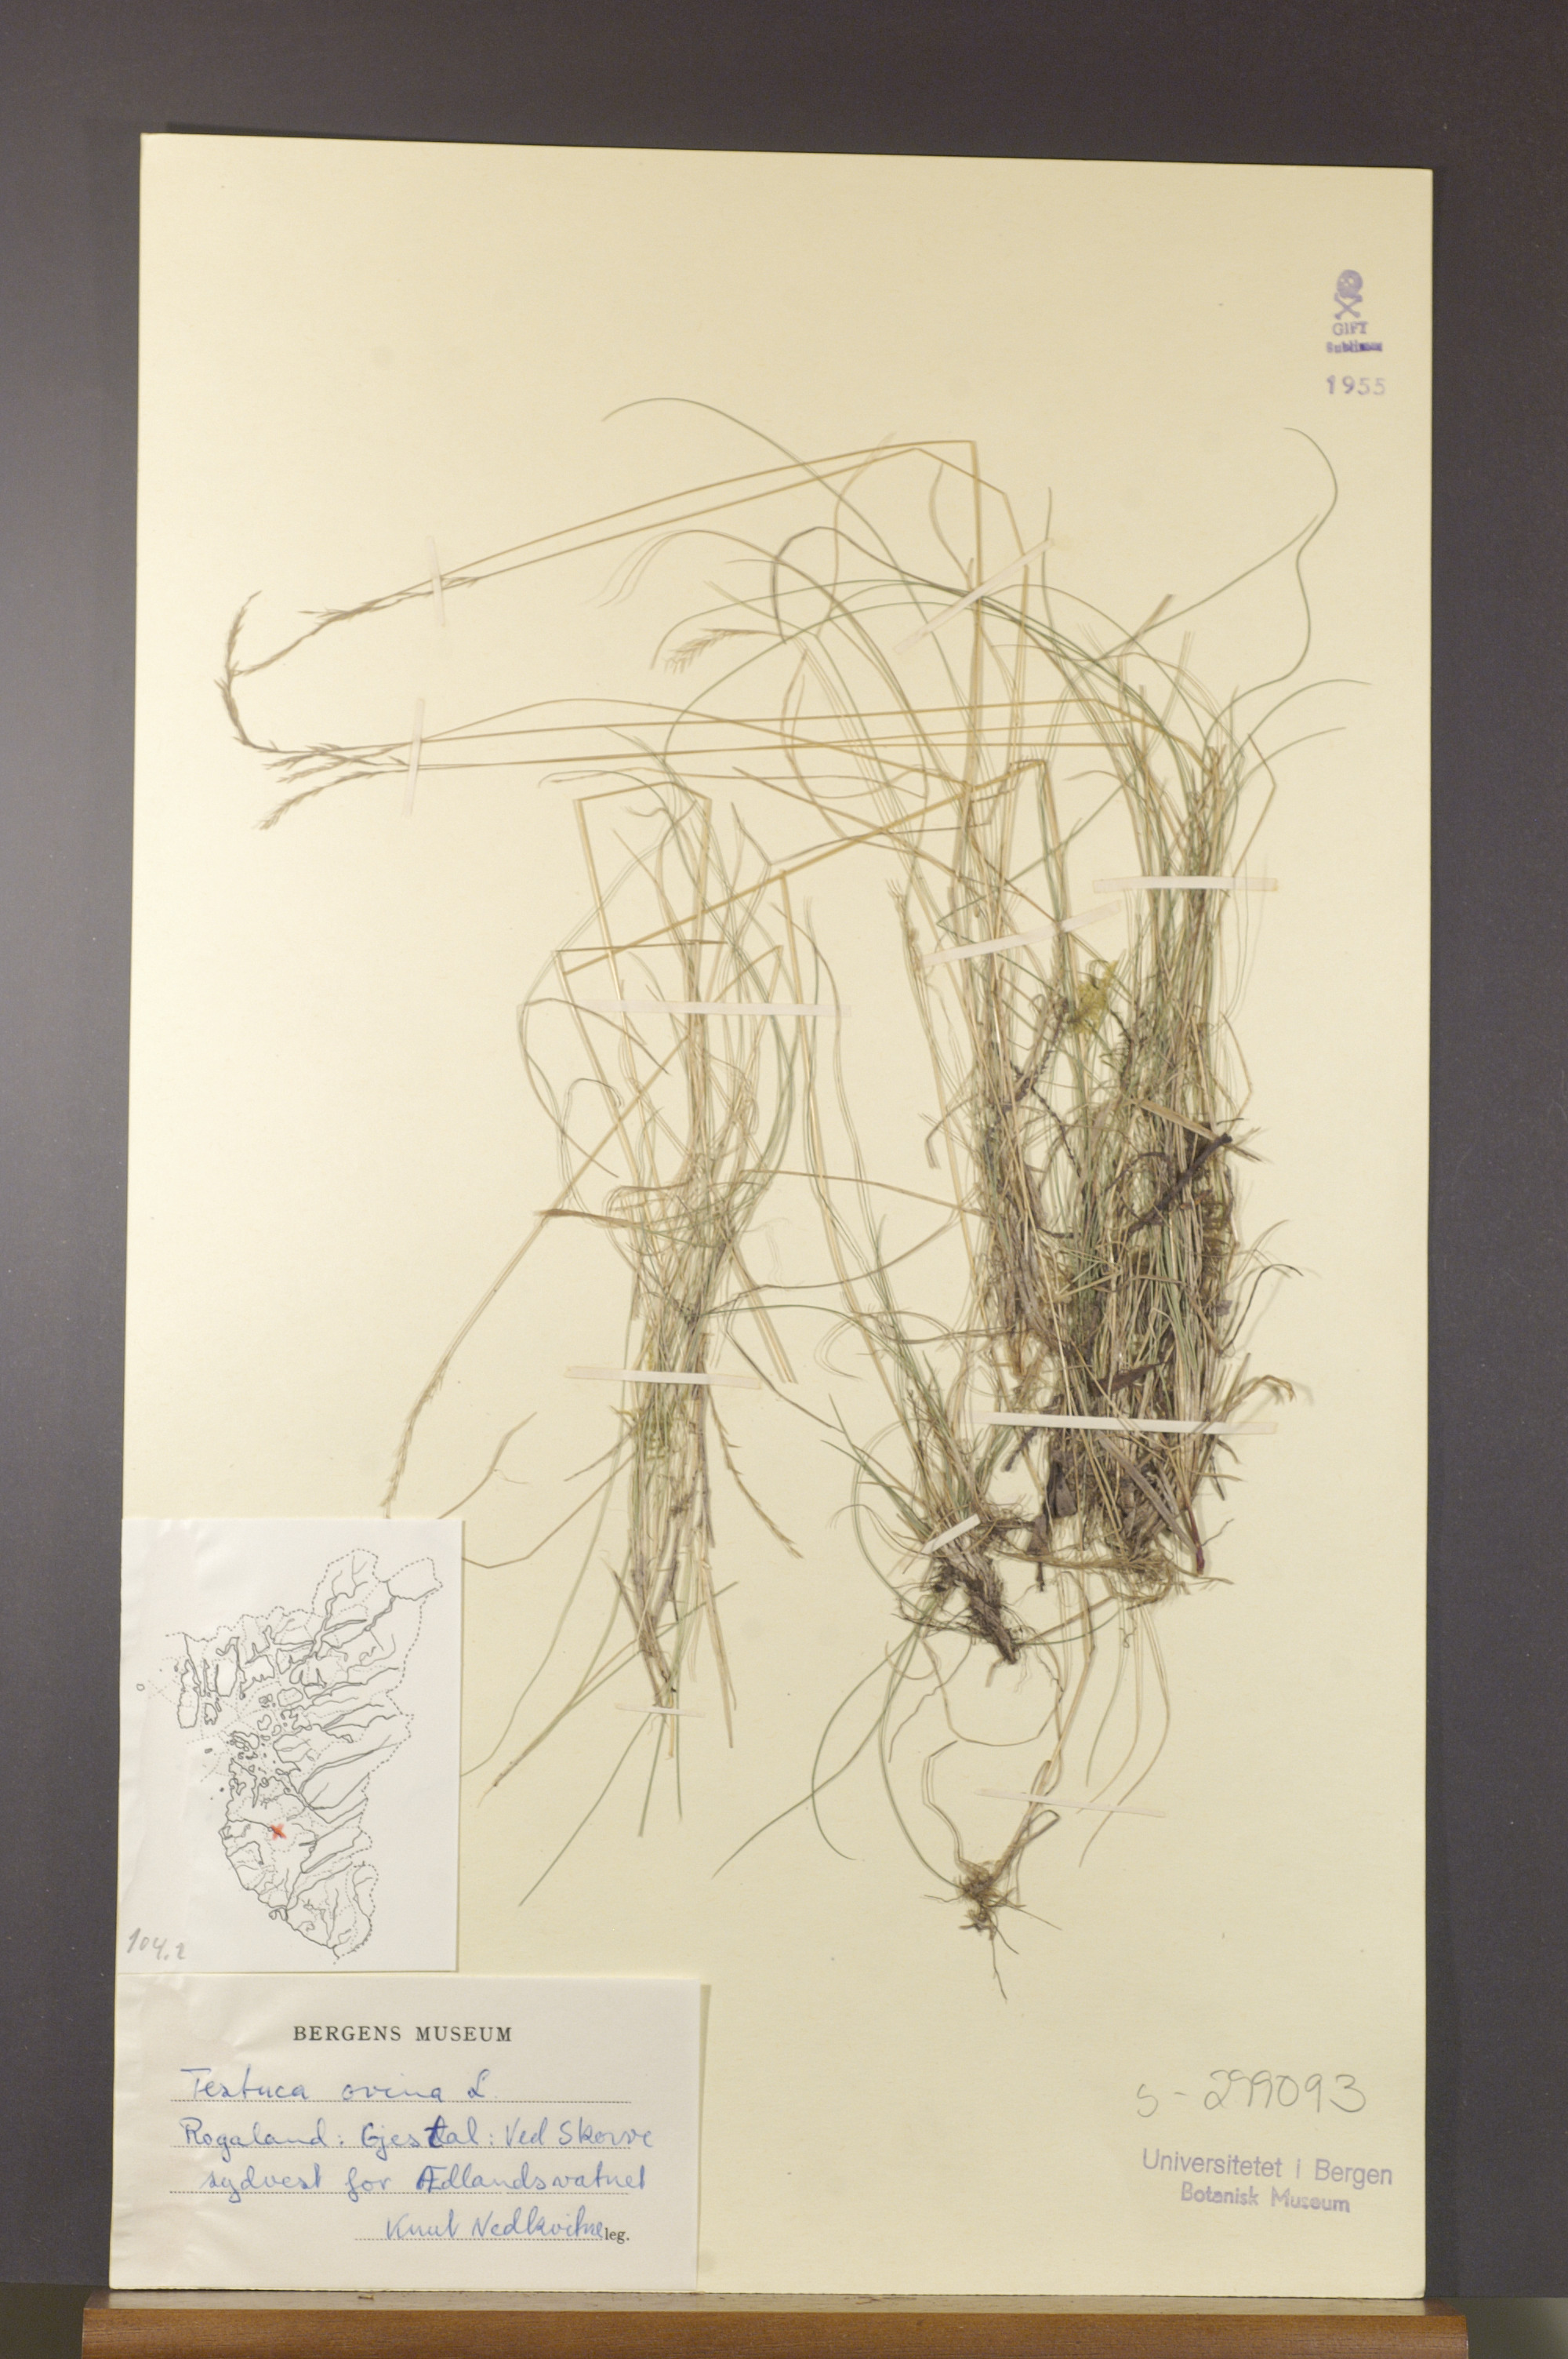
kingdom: Plantae
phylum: Tracheophyta
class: Liliopsida
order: Poales
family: Poaceae
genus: Festuca
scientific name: Festuca ovina
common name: Sheep fescue
